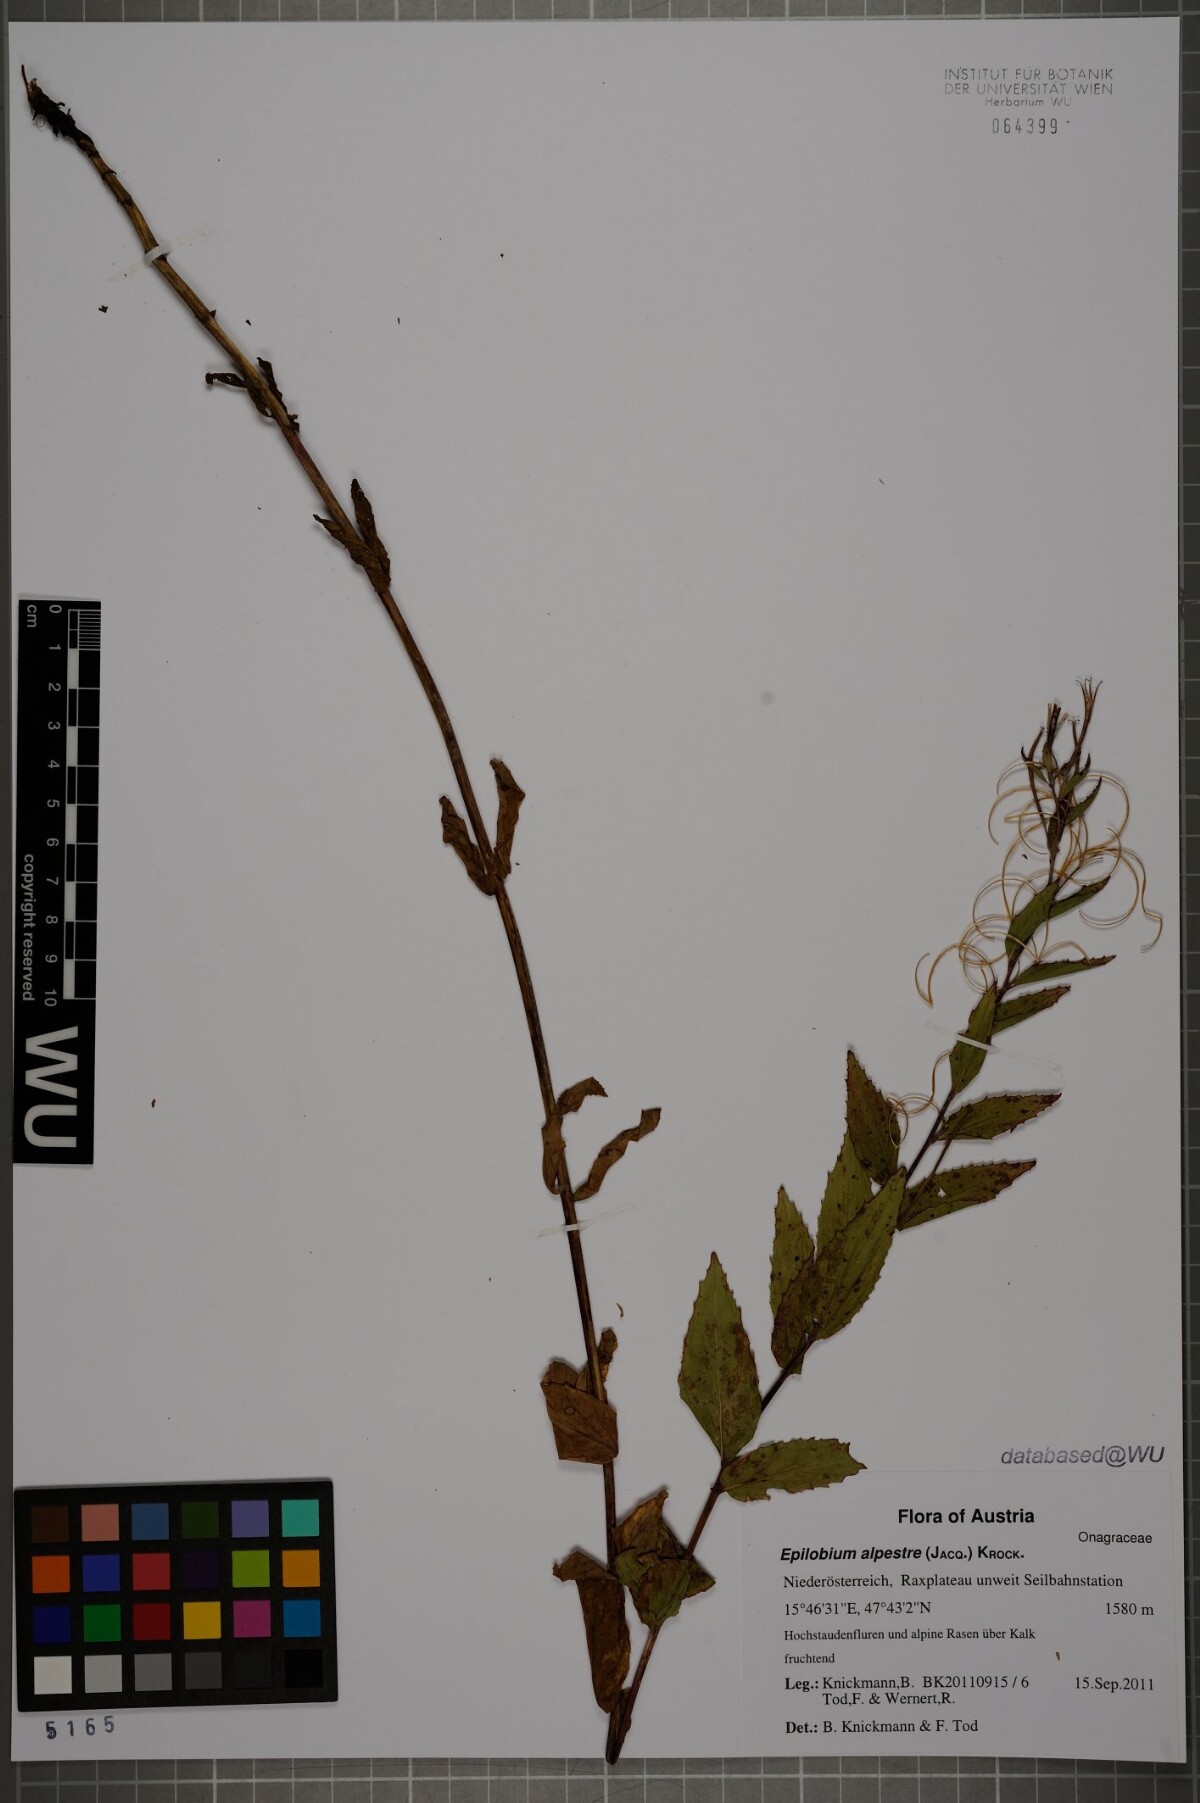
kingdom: Plantae
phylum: Tracheophyta
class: Magnoliopsida
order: Myrtales
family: Onagraceae
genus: Epilobium
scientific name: Epilobium alpestre
